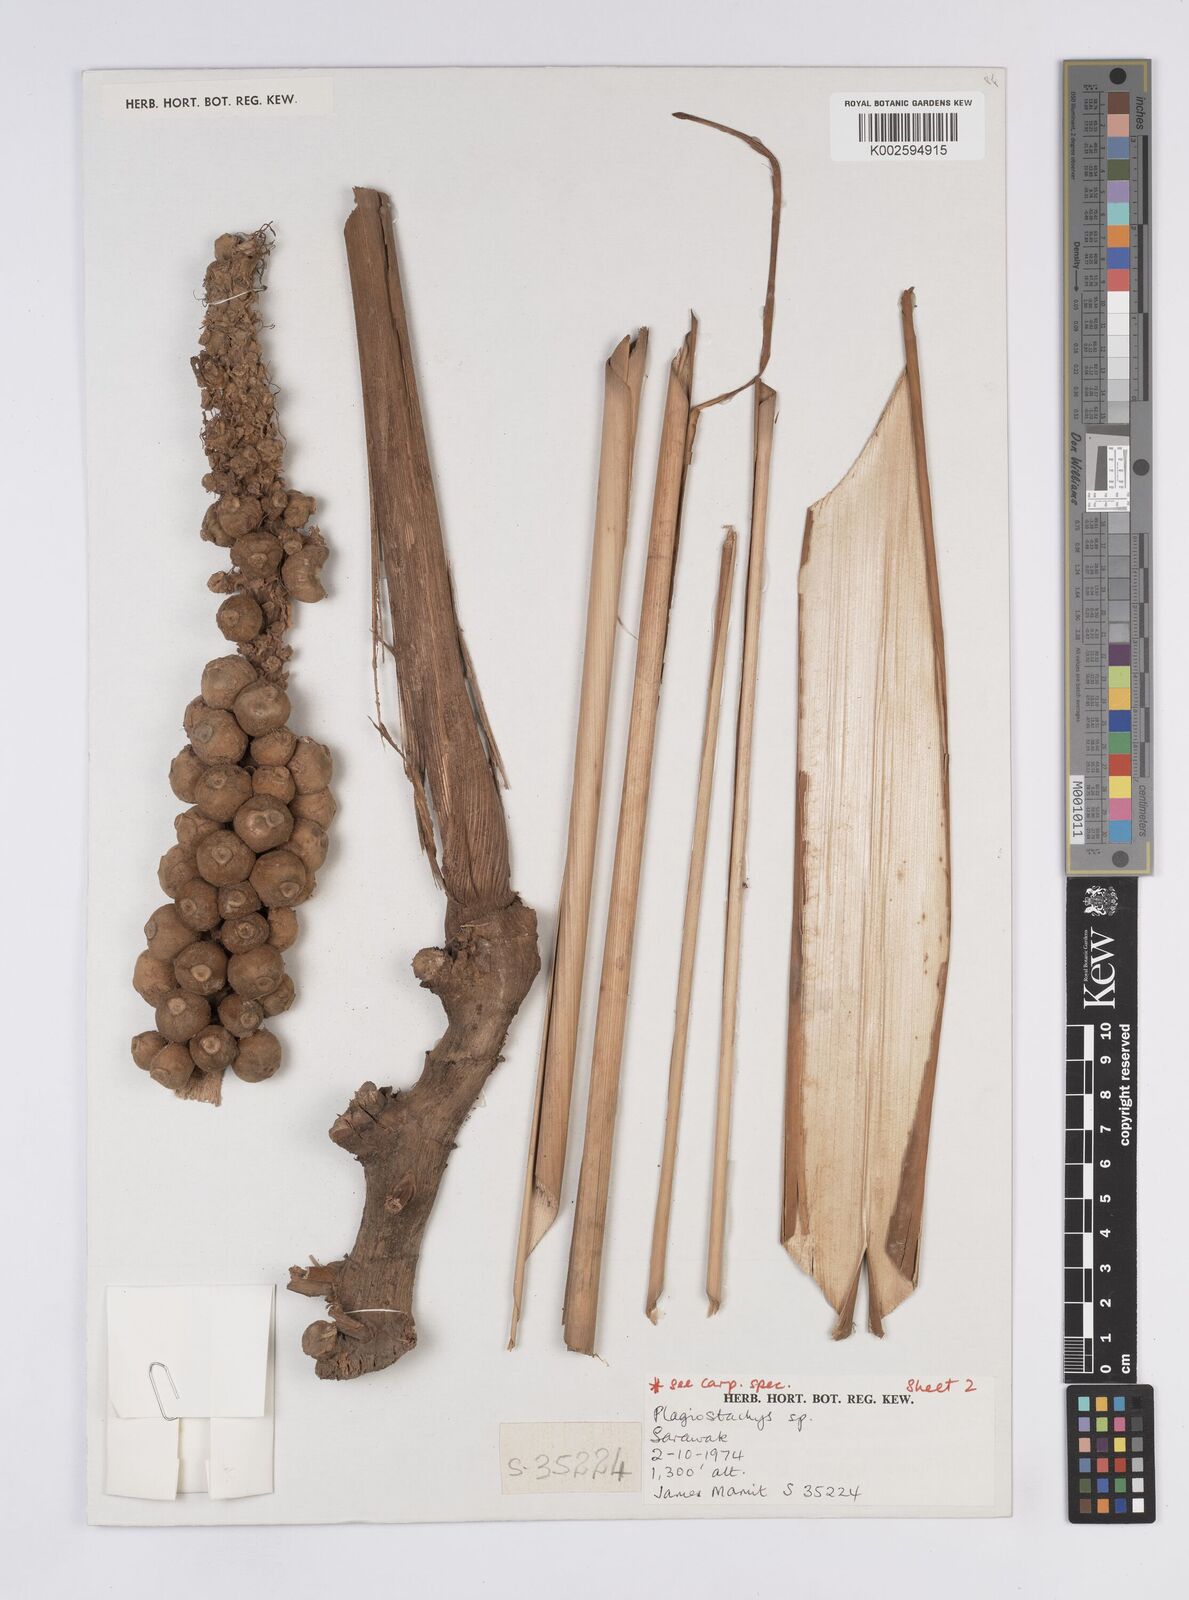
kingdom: Plantae
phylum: Tracheophyta
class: Liliopsida
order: Zingiberales
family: Zingiberaceae
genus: Plagiostachys
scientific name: Plagiostachys
